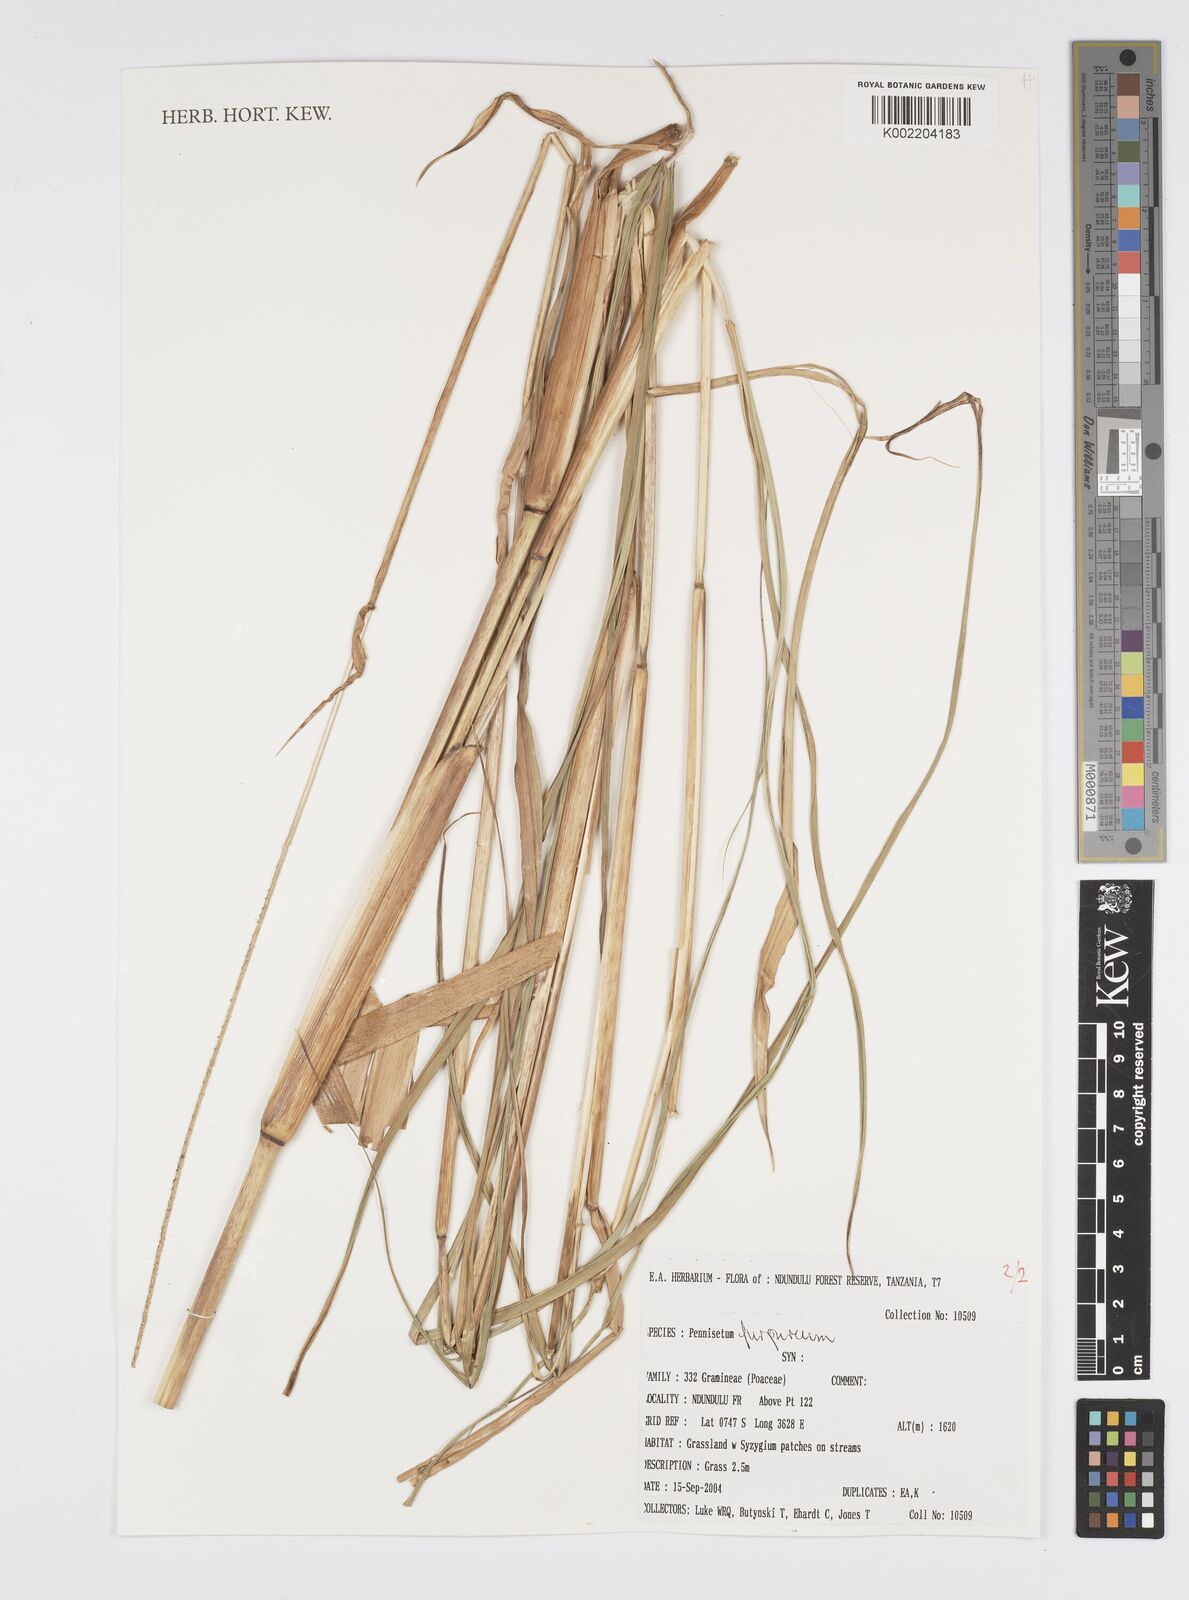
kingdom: Plantae
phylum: Tracheophyta
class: Liliopsida
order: Poales
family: Poaceae
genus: Cenchrus
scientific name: Cenchrus purpureus
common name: Elephant grass
